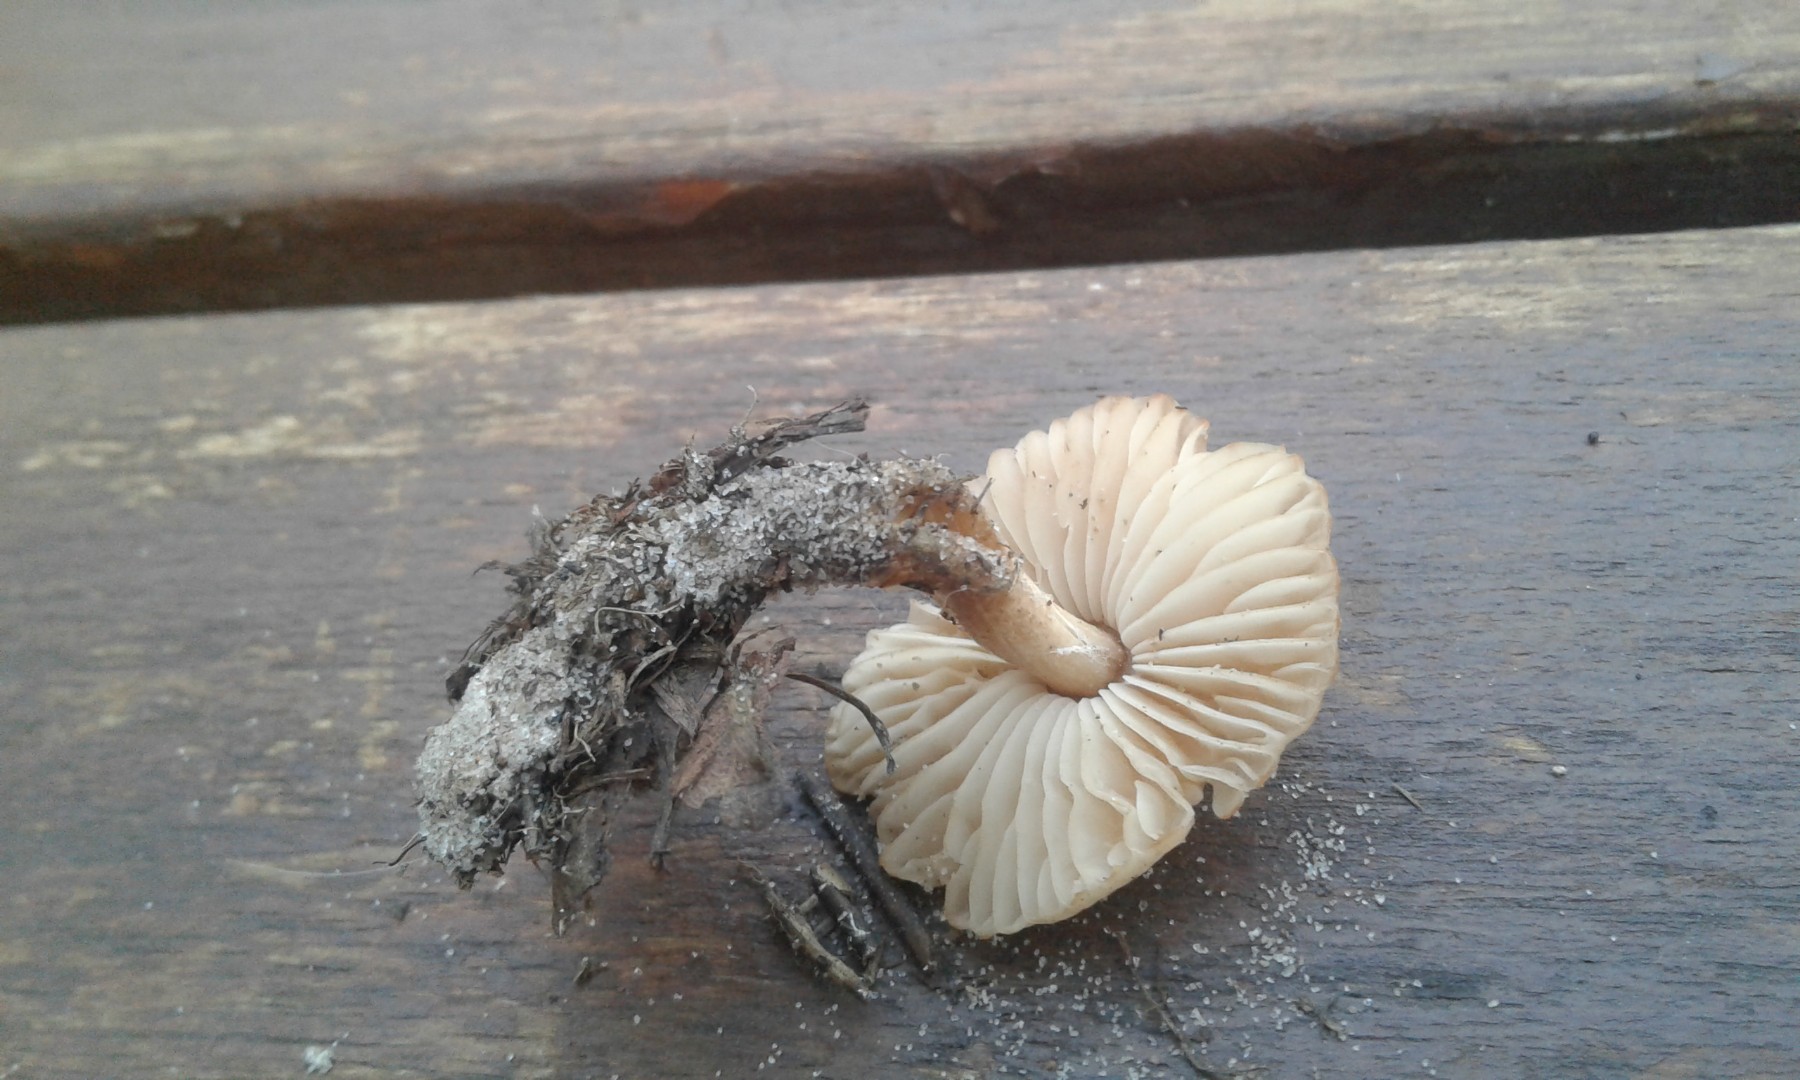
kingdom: Fungi
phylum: Basidiomycota
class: Agaricomycetes
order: Agaricales
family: Marasmiaceae
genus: Marasmius
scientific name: Marasmius oreades
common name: elledans-bruskhat
